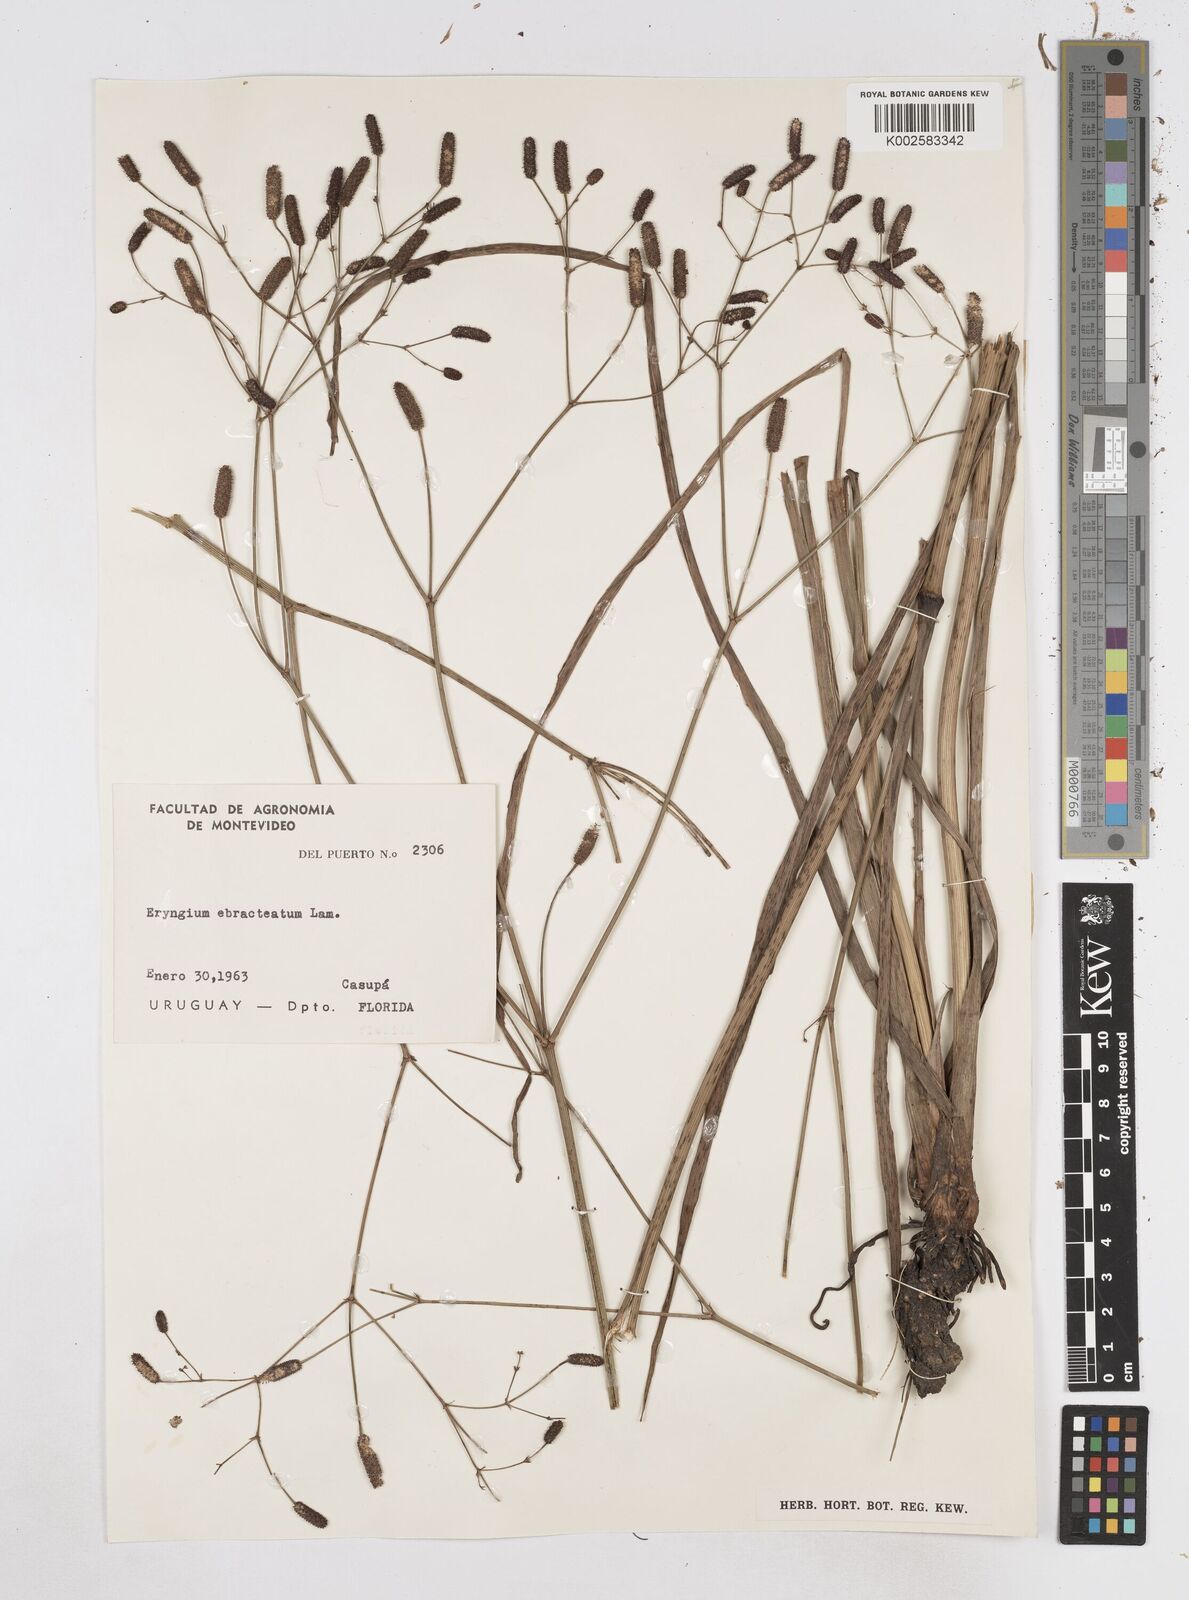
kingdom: Plantae
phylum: Tracheophyta
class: Magnoliopsida
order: Apiales
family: Apiaceae
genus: Eryngium
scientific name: Eryngium ebracteatum
